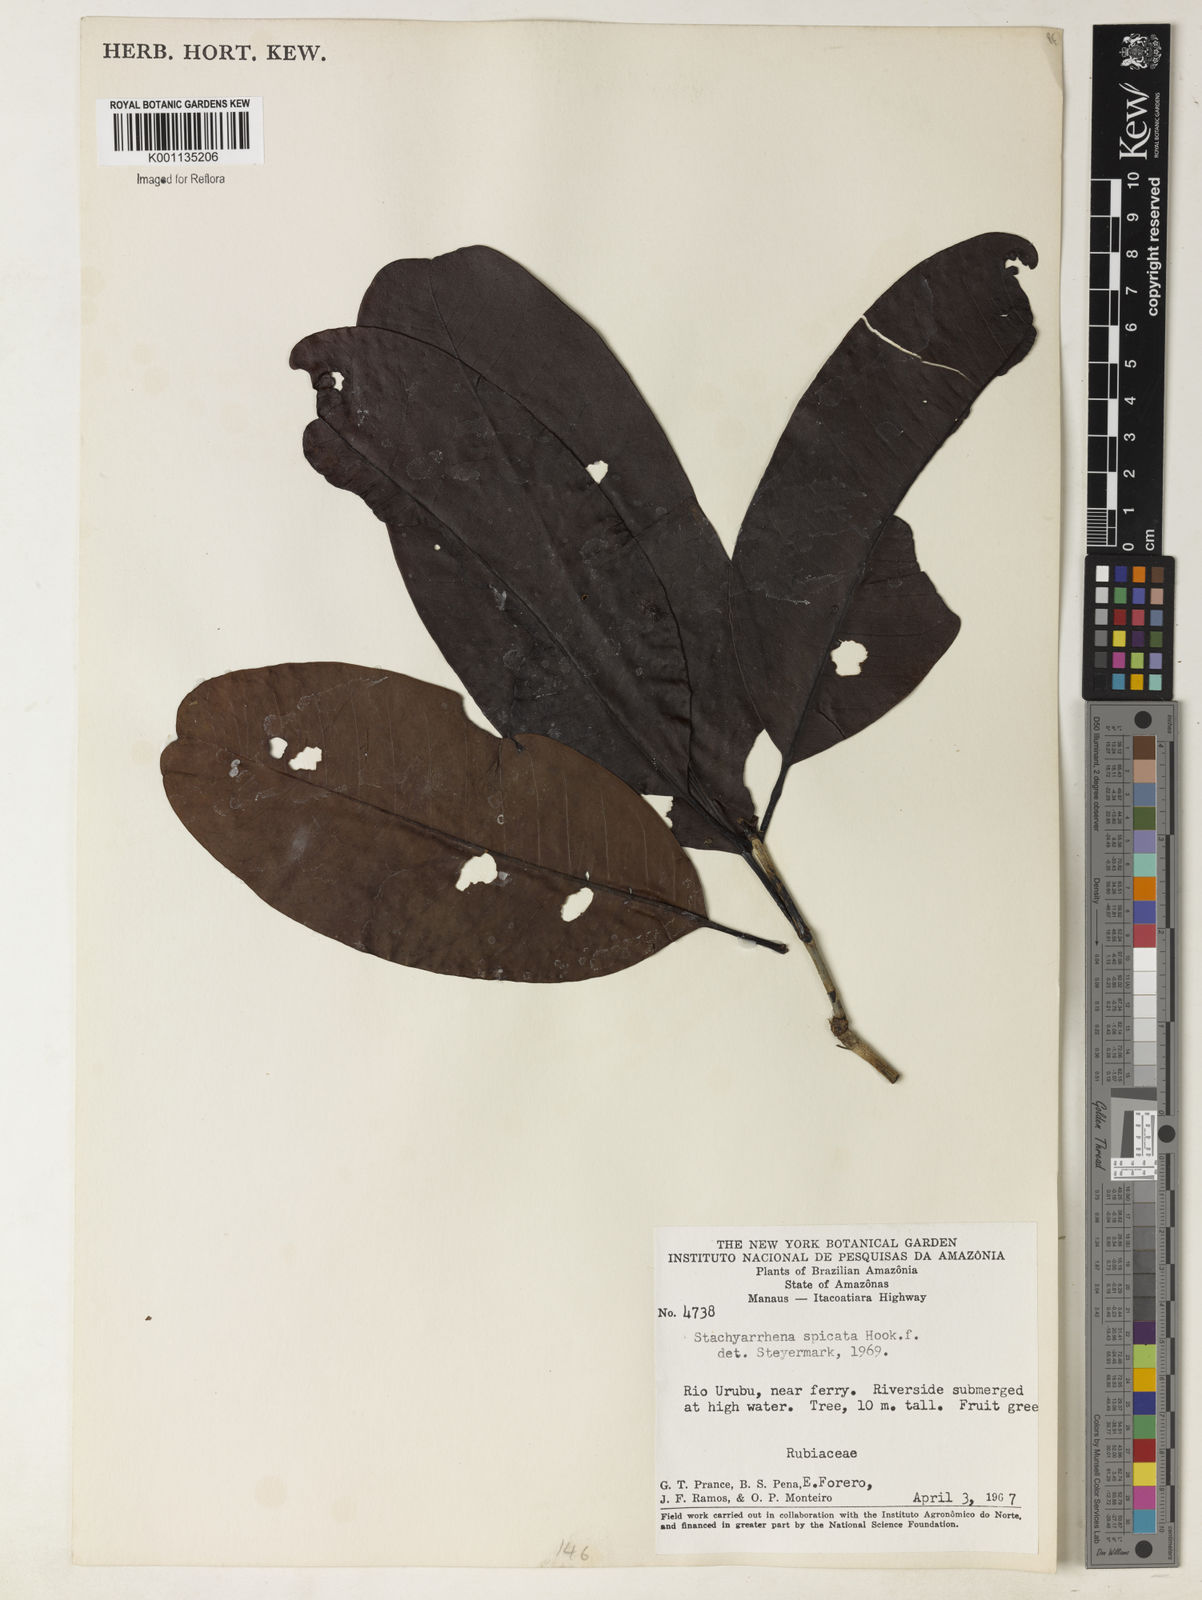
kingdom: Plantae
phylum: Tracheophyta
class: Magnoliopsida
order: Gentianales
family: Rubiaceae
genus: Stachyarrhena
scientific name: Stachyarrhena spicata
